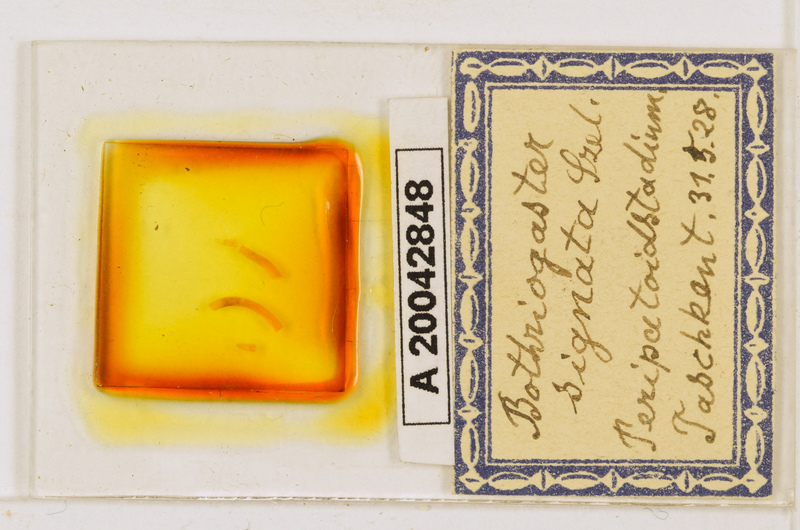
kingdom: Animalia
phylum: Arthropoda
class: Chilopoda
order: Geophilomorpha
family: Himantariidae
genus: Bothriogaster
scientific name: Bothriogaster signata
